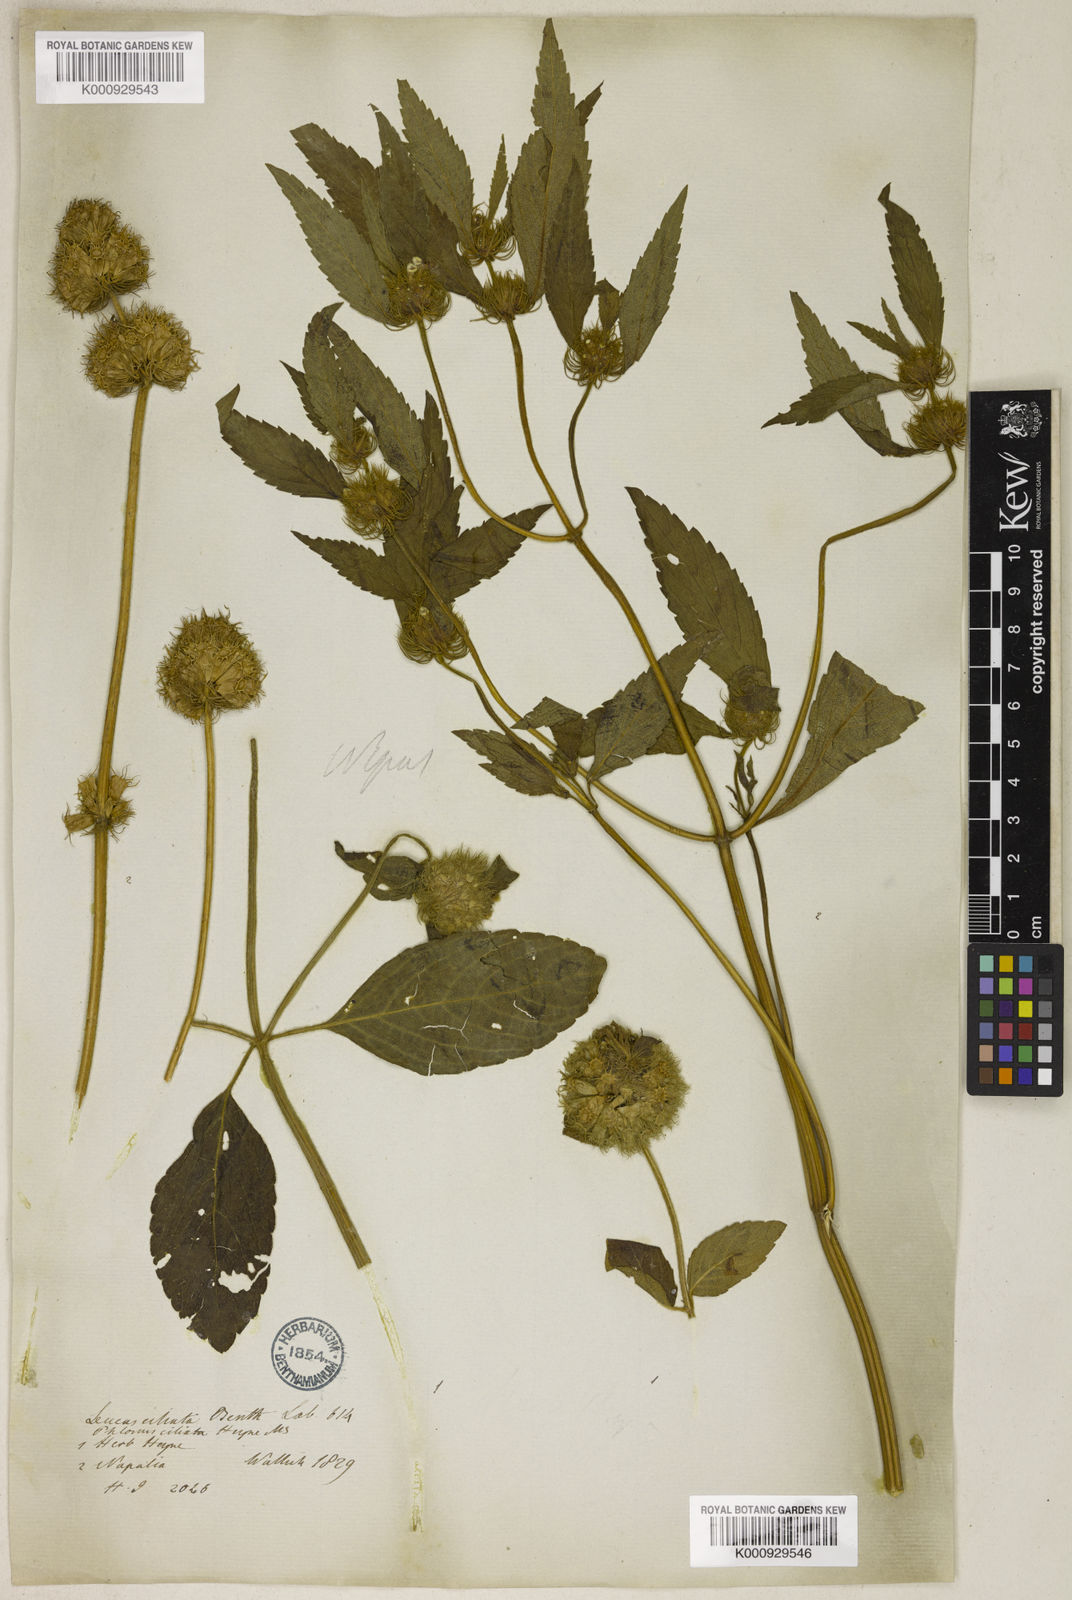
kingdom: Plantae
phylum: Tracheophyta
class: Magnoliopsida
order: Lamiales
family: Lamiaceae
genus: Leucas
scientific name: Leucas ciliata
